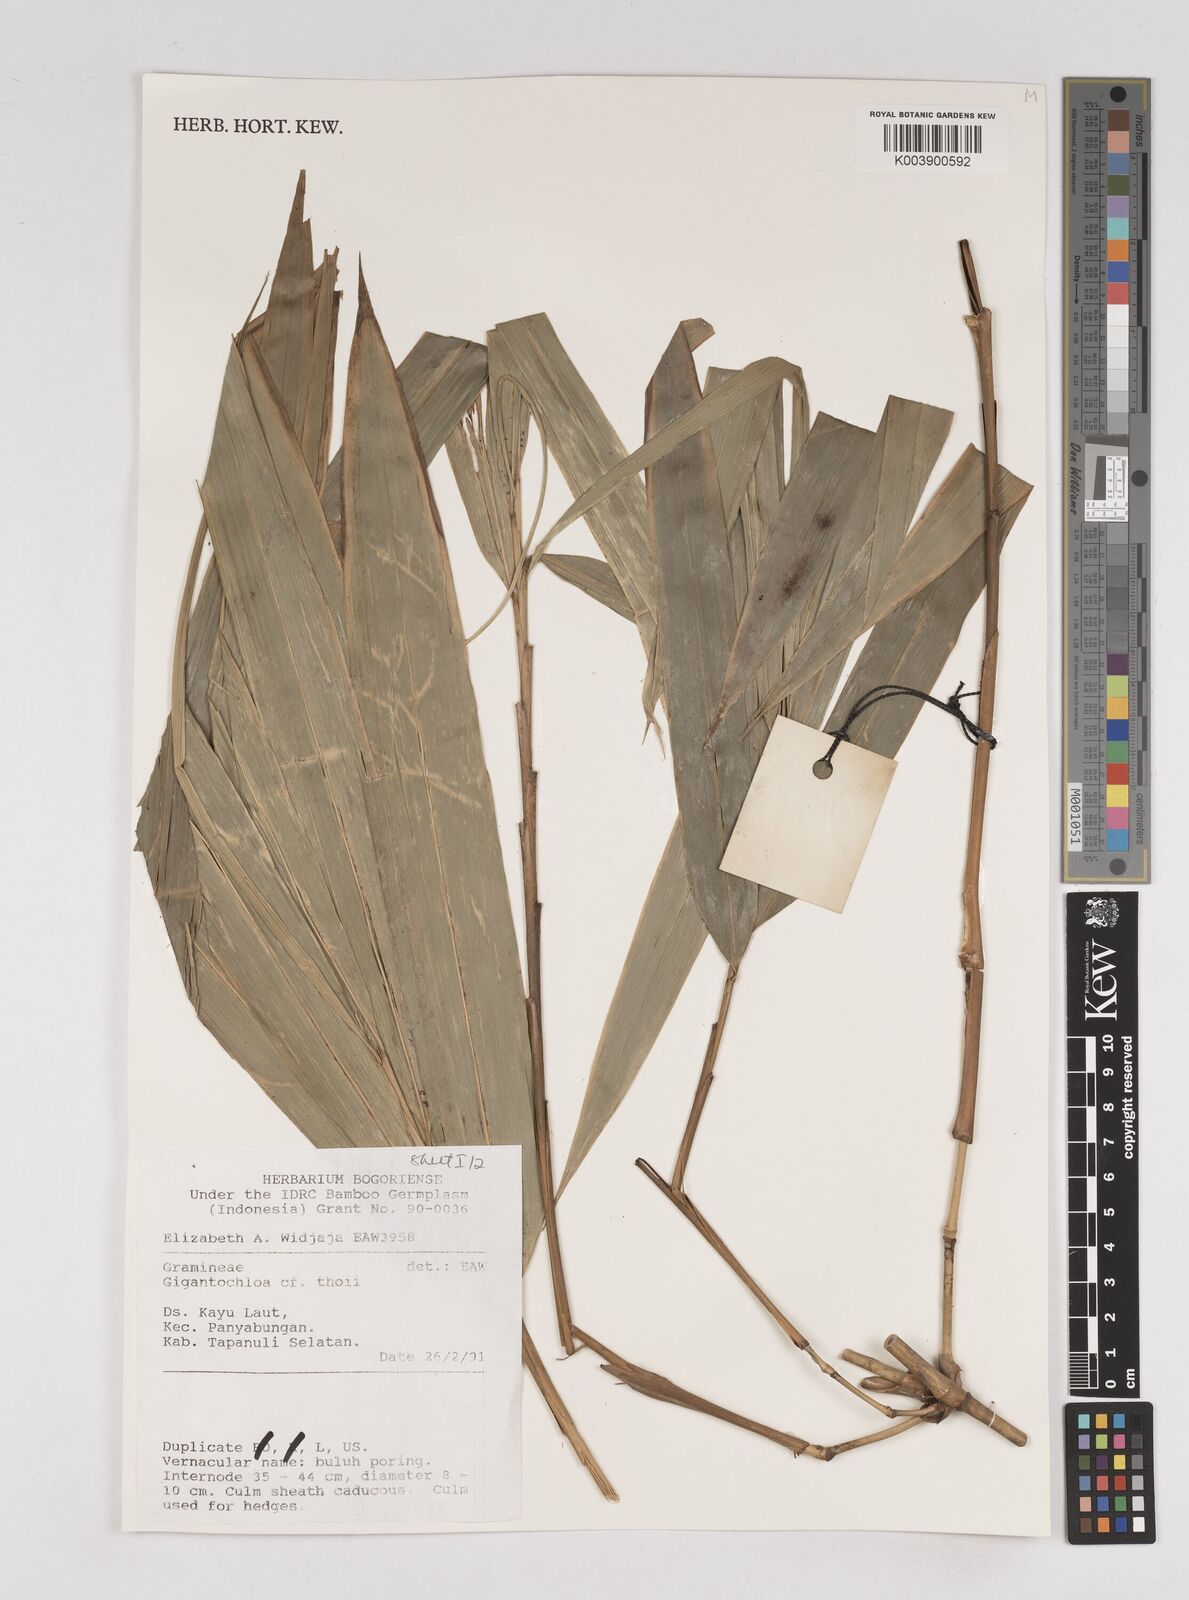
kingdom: Plantae
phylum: Tracheophyta
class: Liliopsida
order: Poales
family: Poaceae
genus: Gigantochloa
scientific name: Gigantochloa thoi
